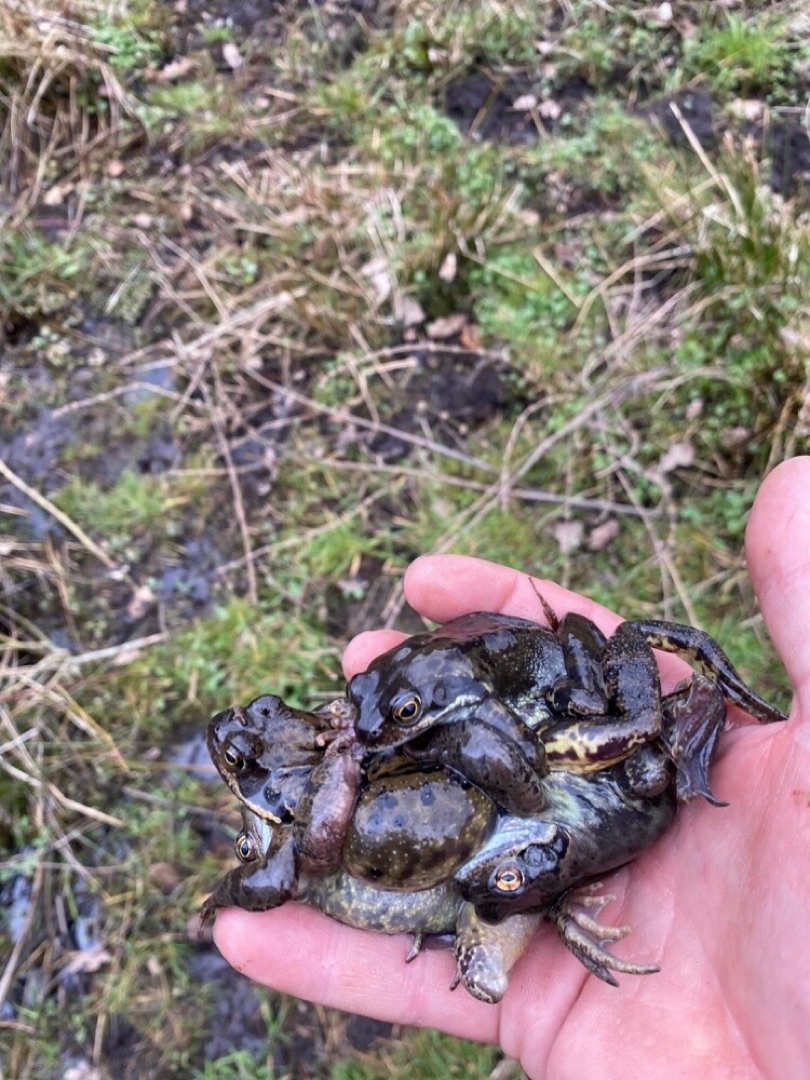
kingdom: Animalia
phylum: Chordata
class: Amphibia
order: Anura
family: Ranidae
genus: Rana
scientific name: Rana temporaria
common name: Butsnudet frø
